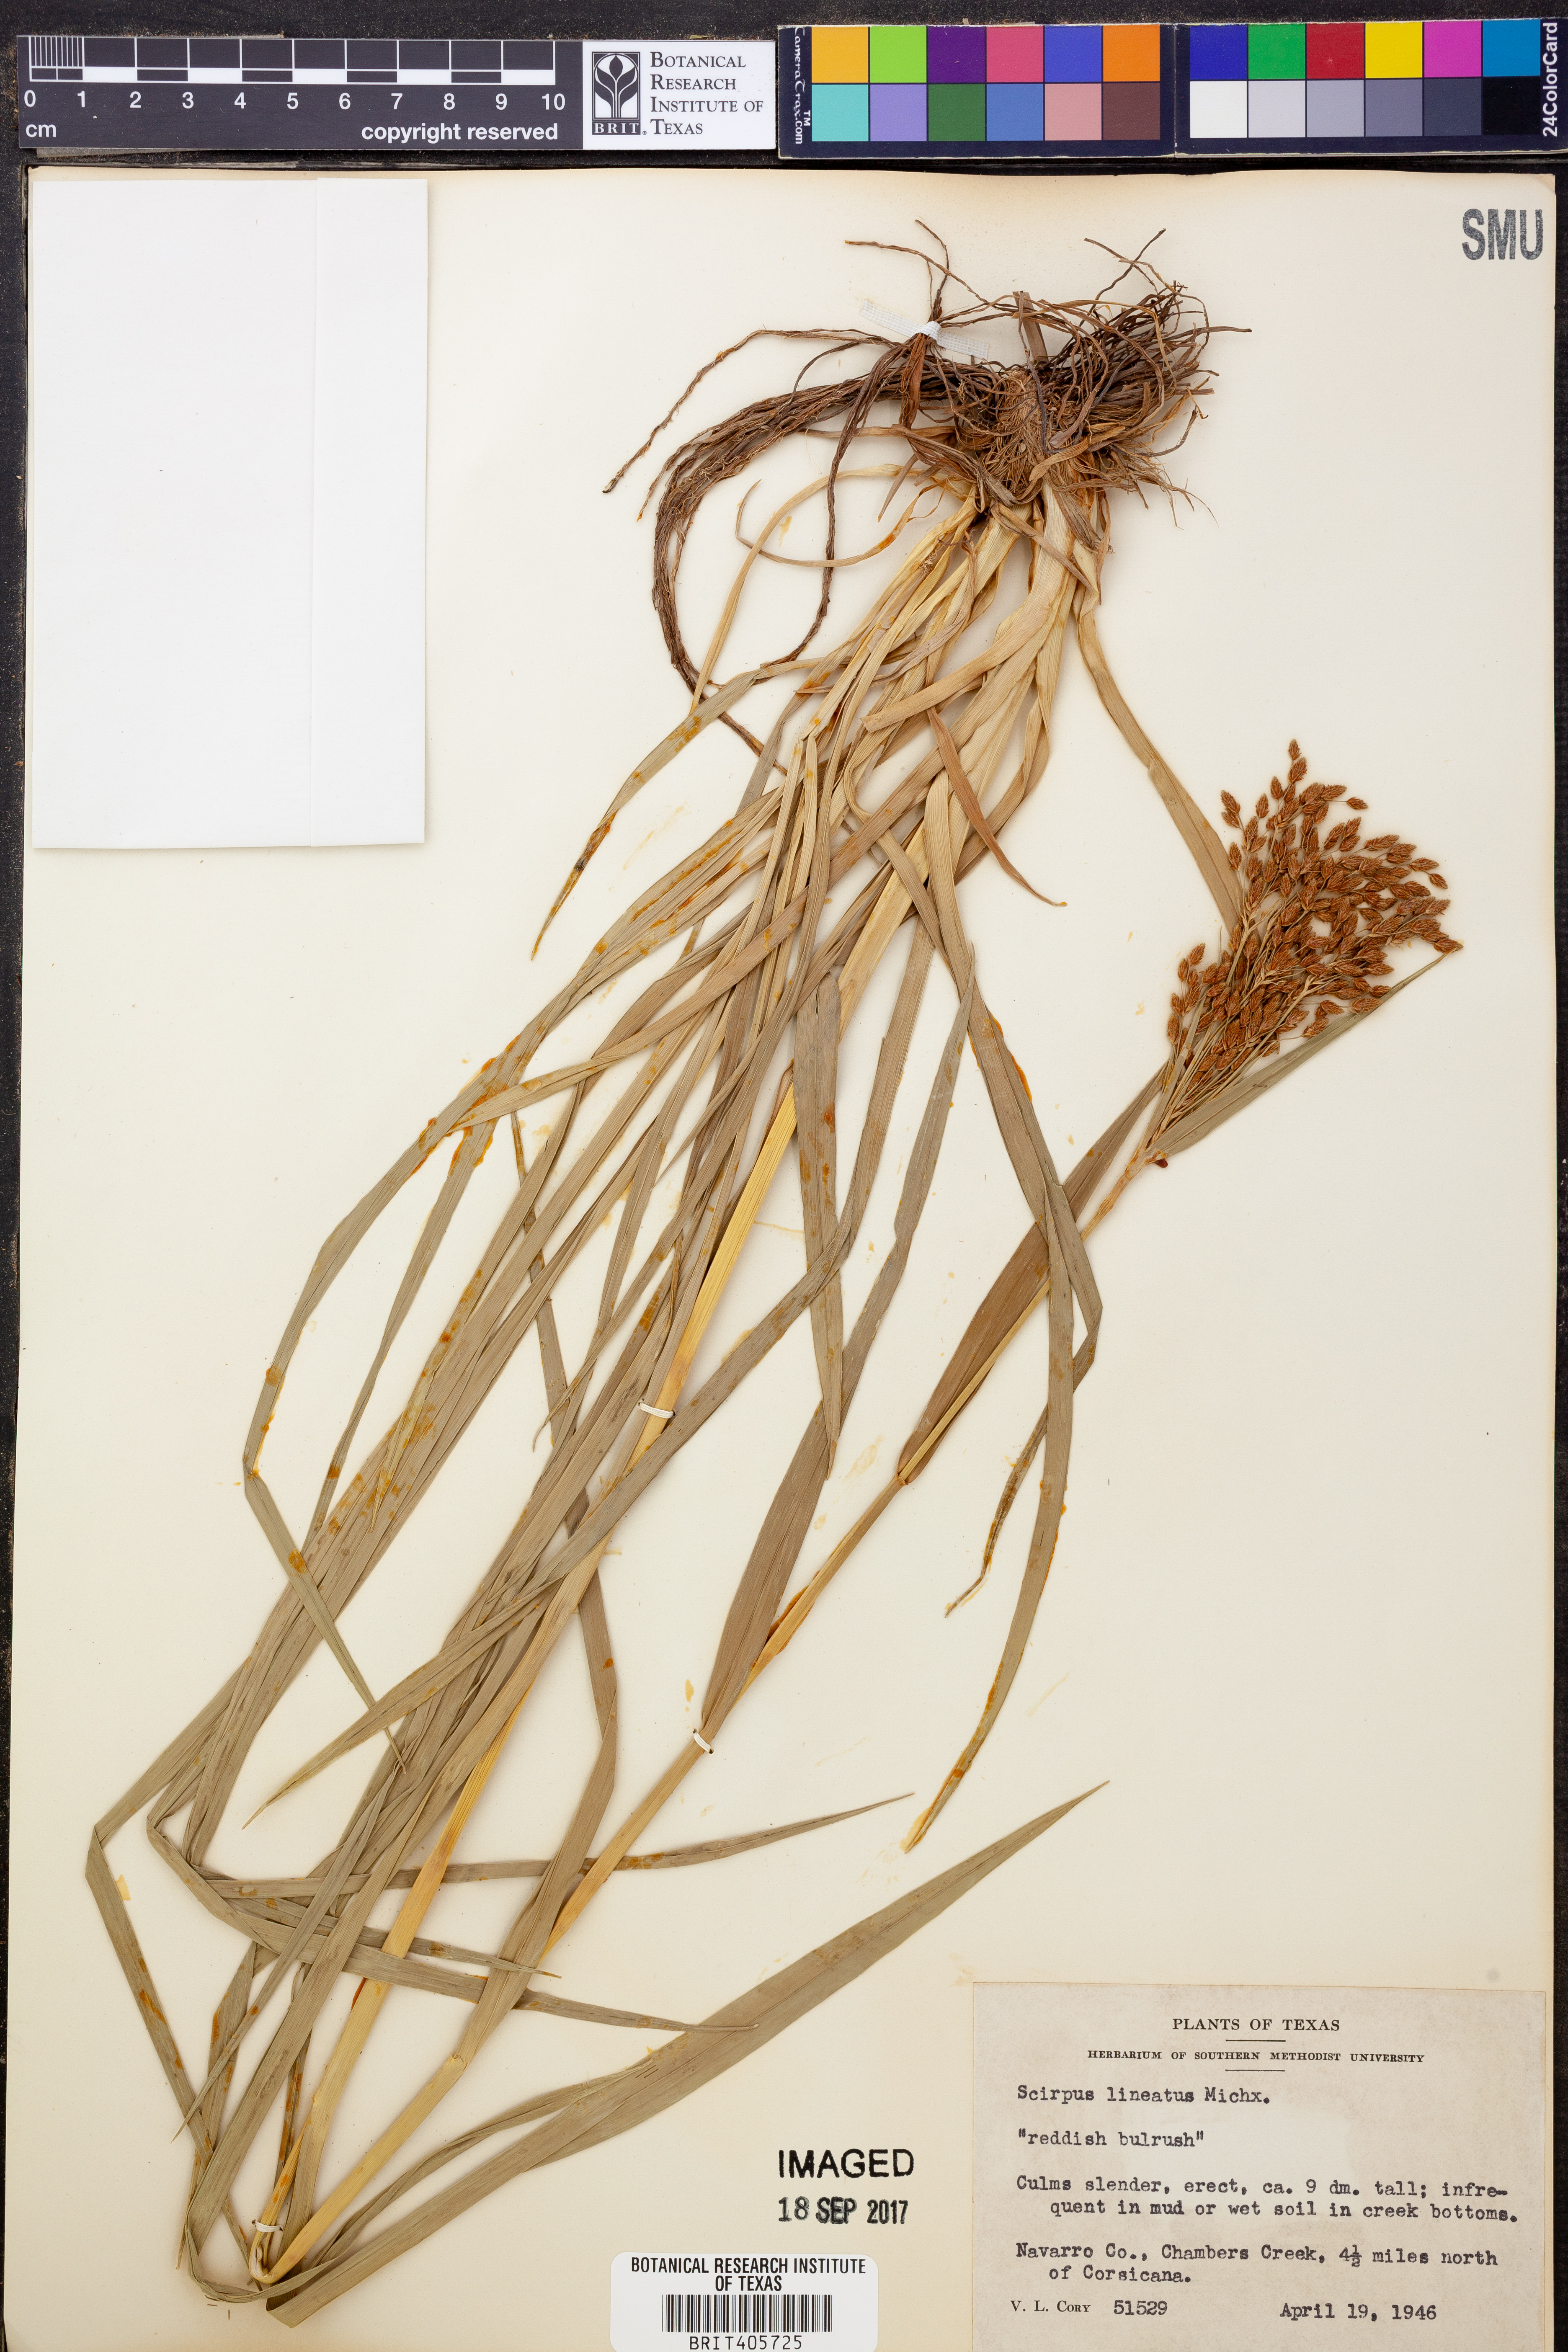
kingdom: Plantae
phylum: Tracheophyta
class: Liliopsida
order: Poales
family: Cyperaceae
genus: Scirpus
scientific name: Scirpus lineatus
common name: Drooping bulrush
